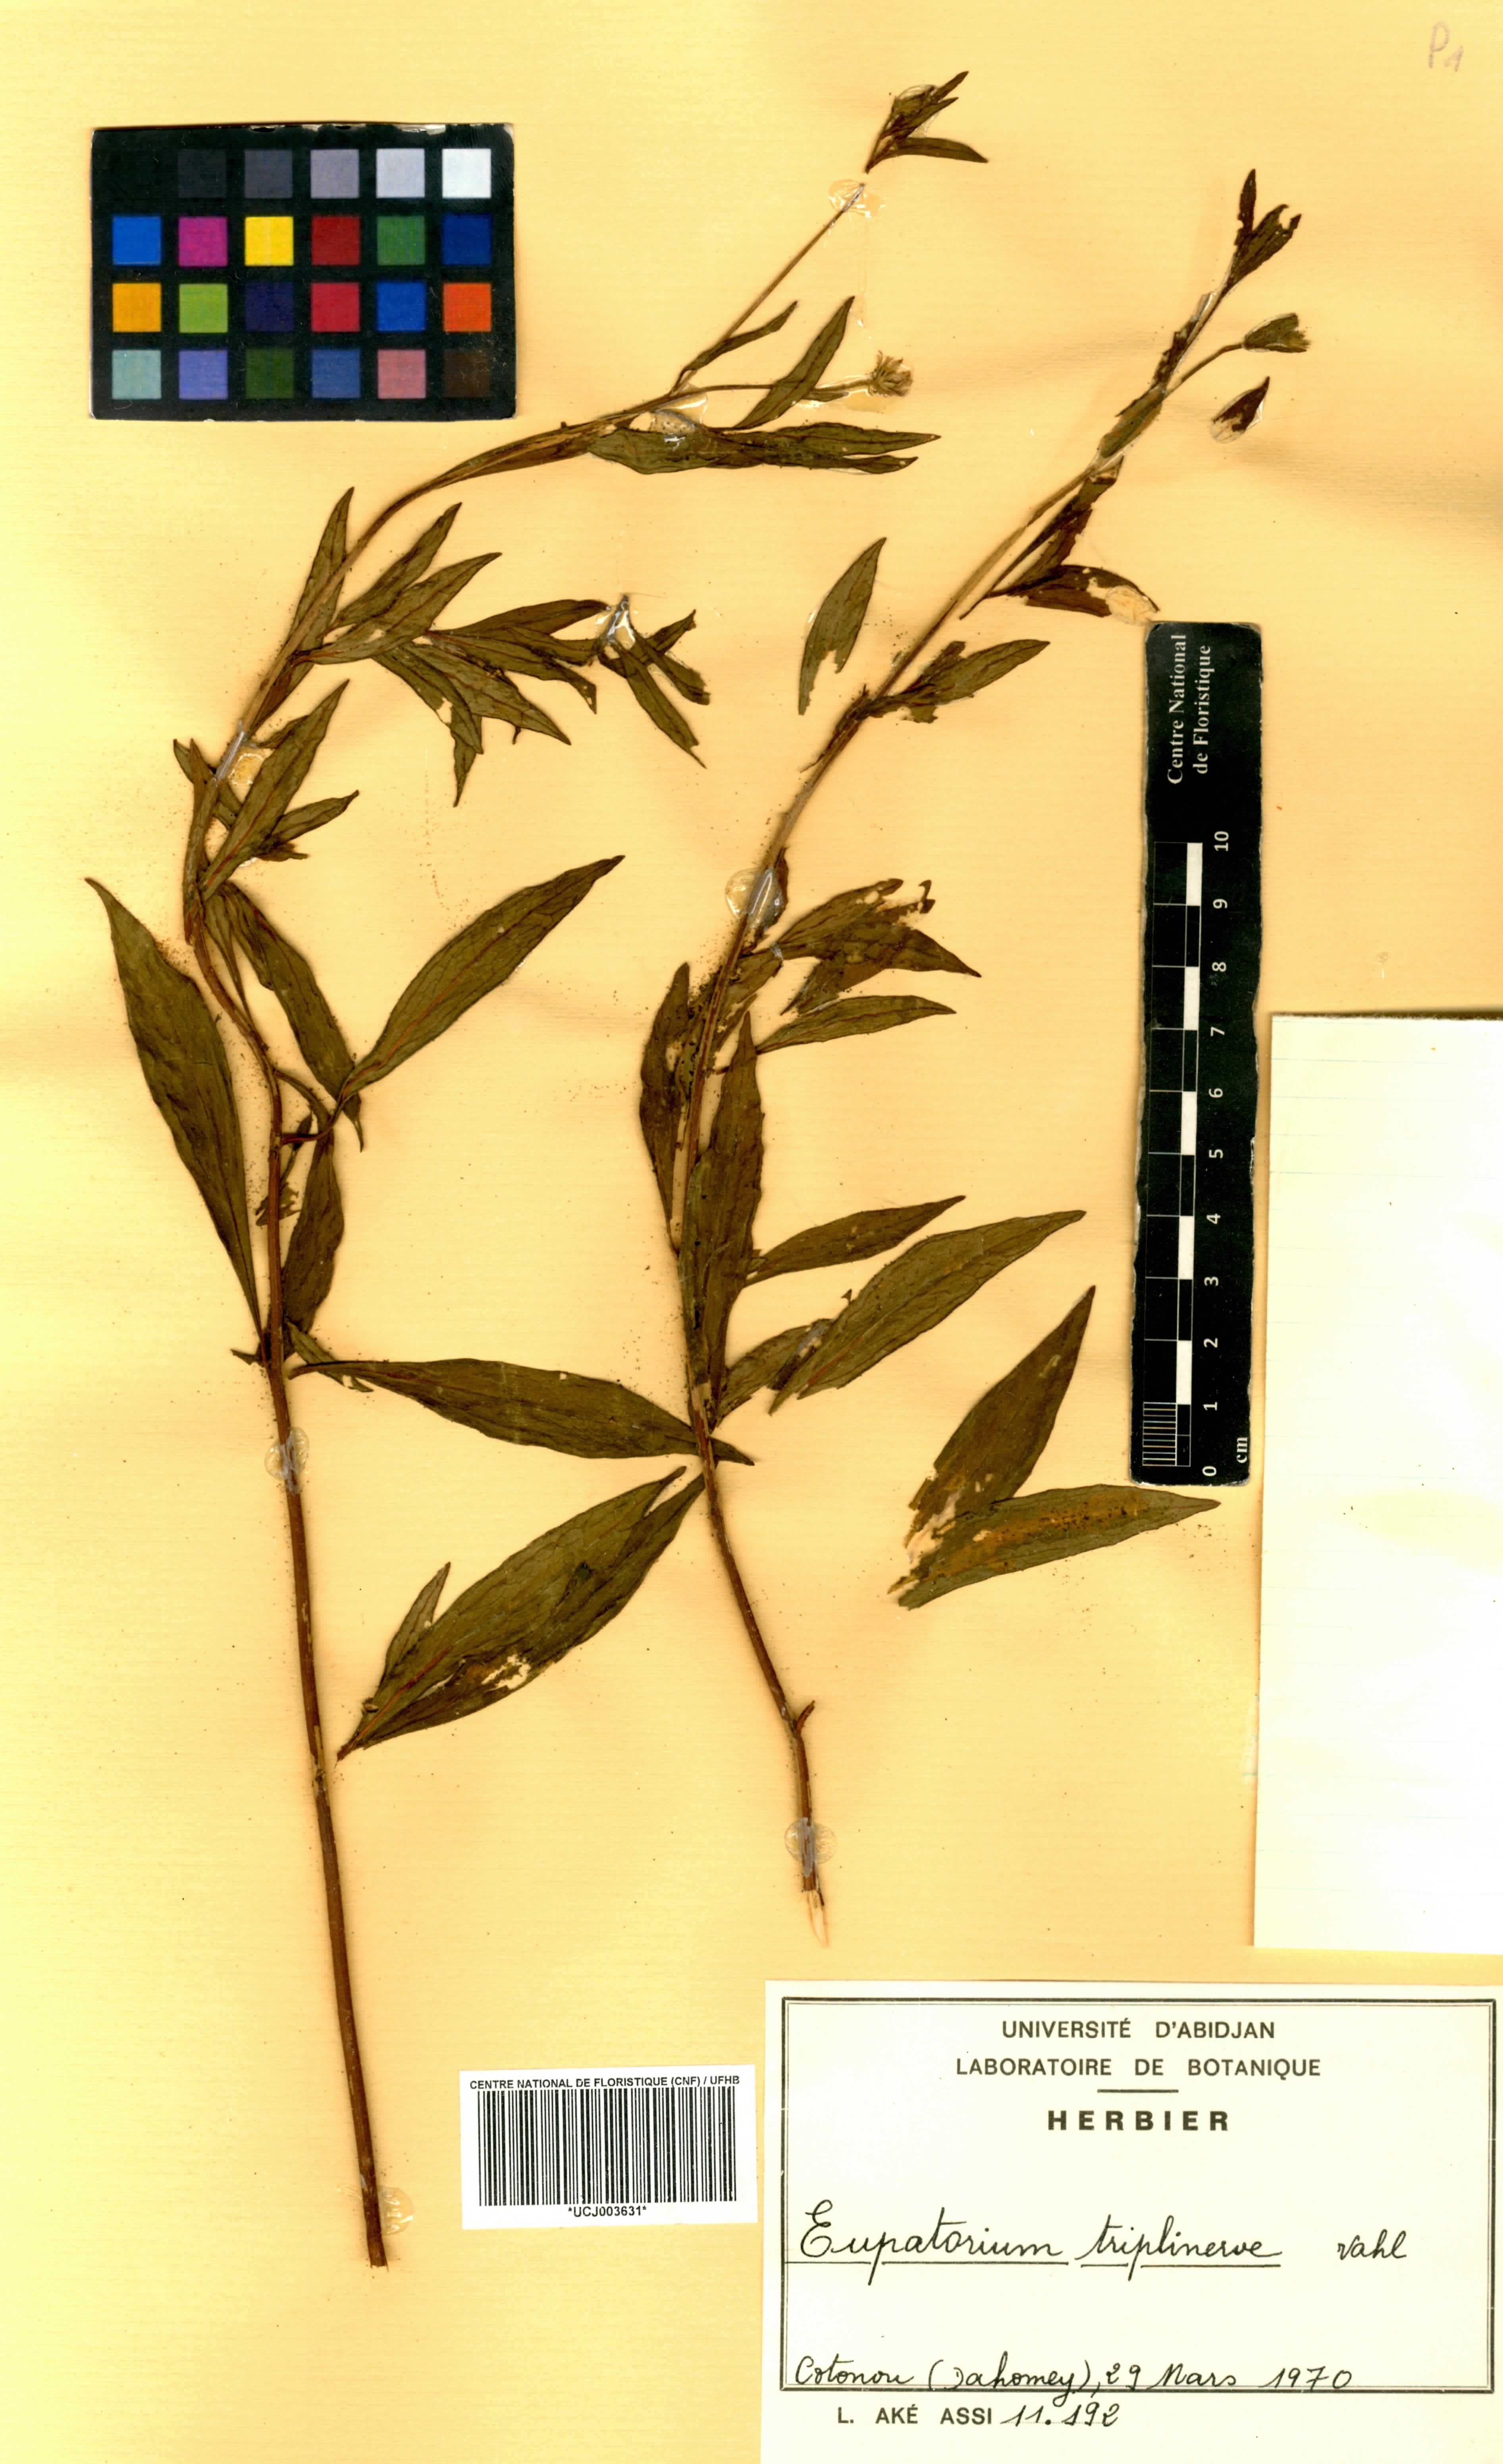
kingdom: Plantae
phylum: Tracheophyta
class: Magnoliopsida
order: Asterales
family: Asteraceae
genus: Ayapana
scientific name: Ayapana triplinervis
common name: Triplinerved eupatorium
